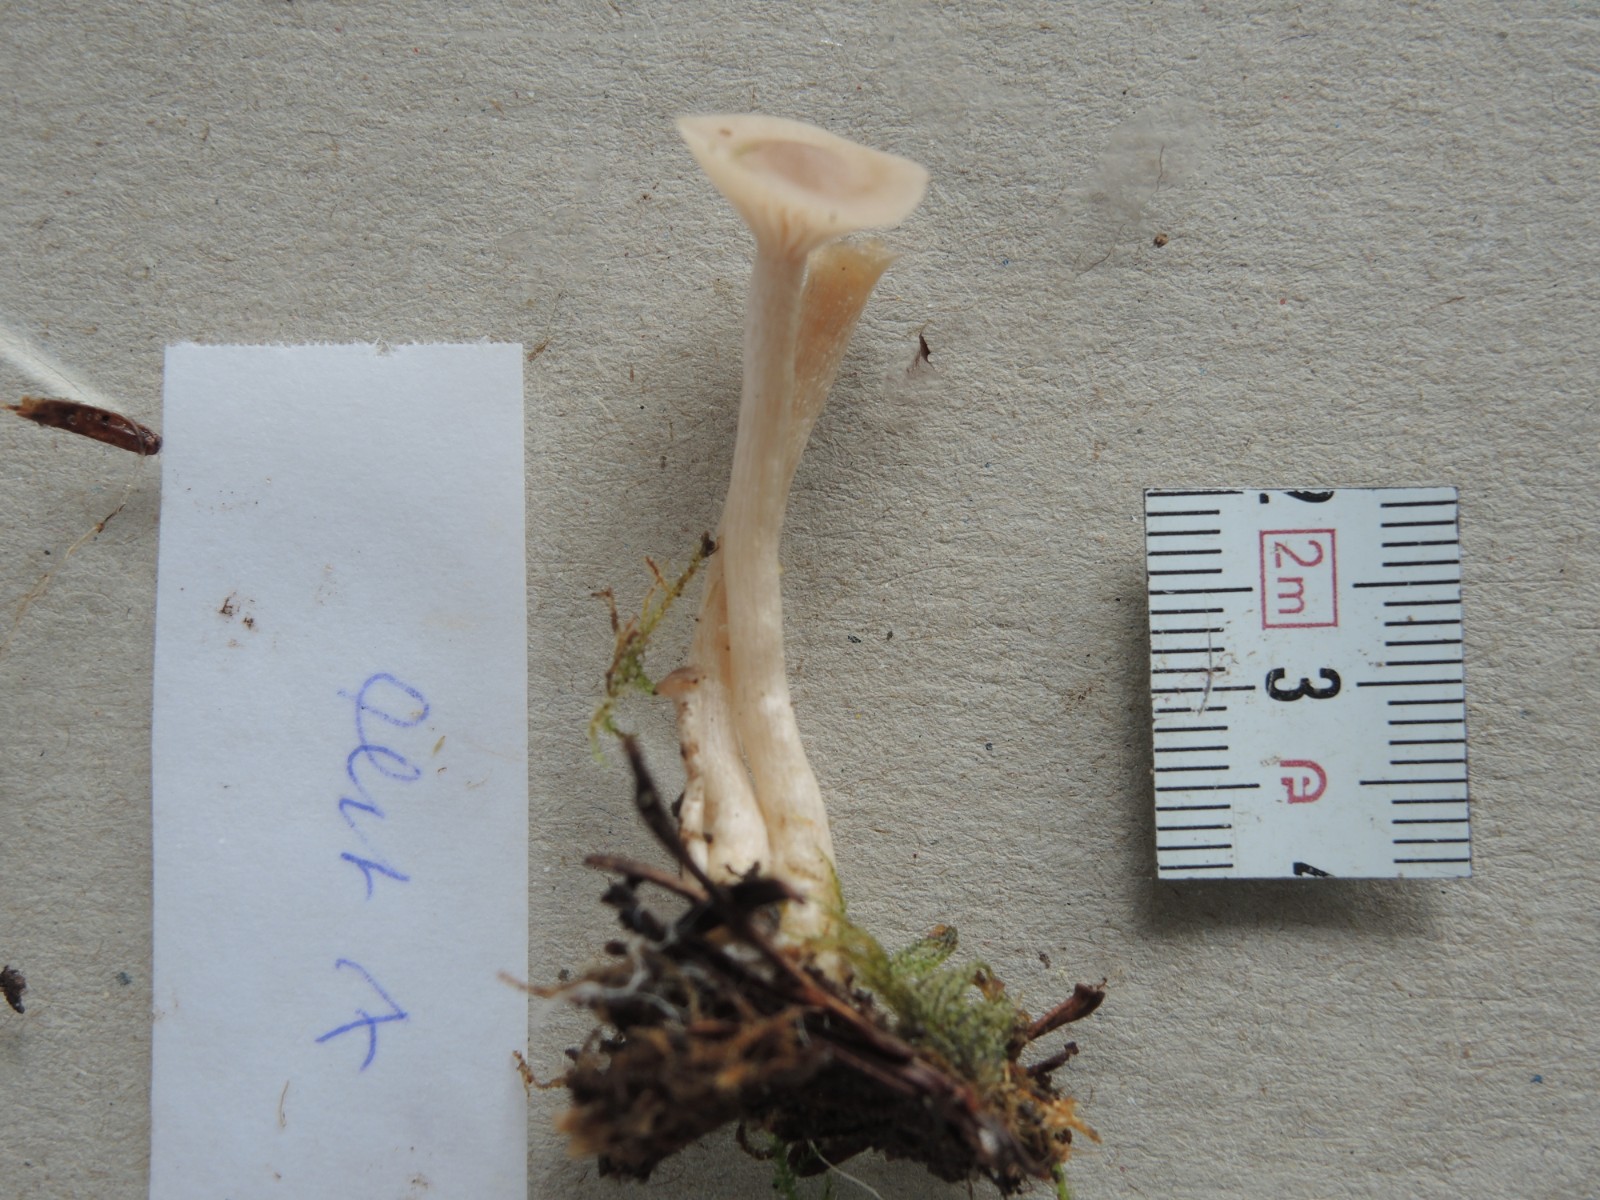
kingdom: Fungi
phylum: Basidiomycota
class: Agaricomycetes
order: Agaricales
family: Tricholomataceae
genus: Clitocybe
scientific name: Clitocybe fragrans
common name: vellugtende tragthat
